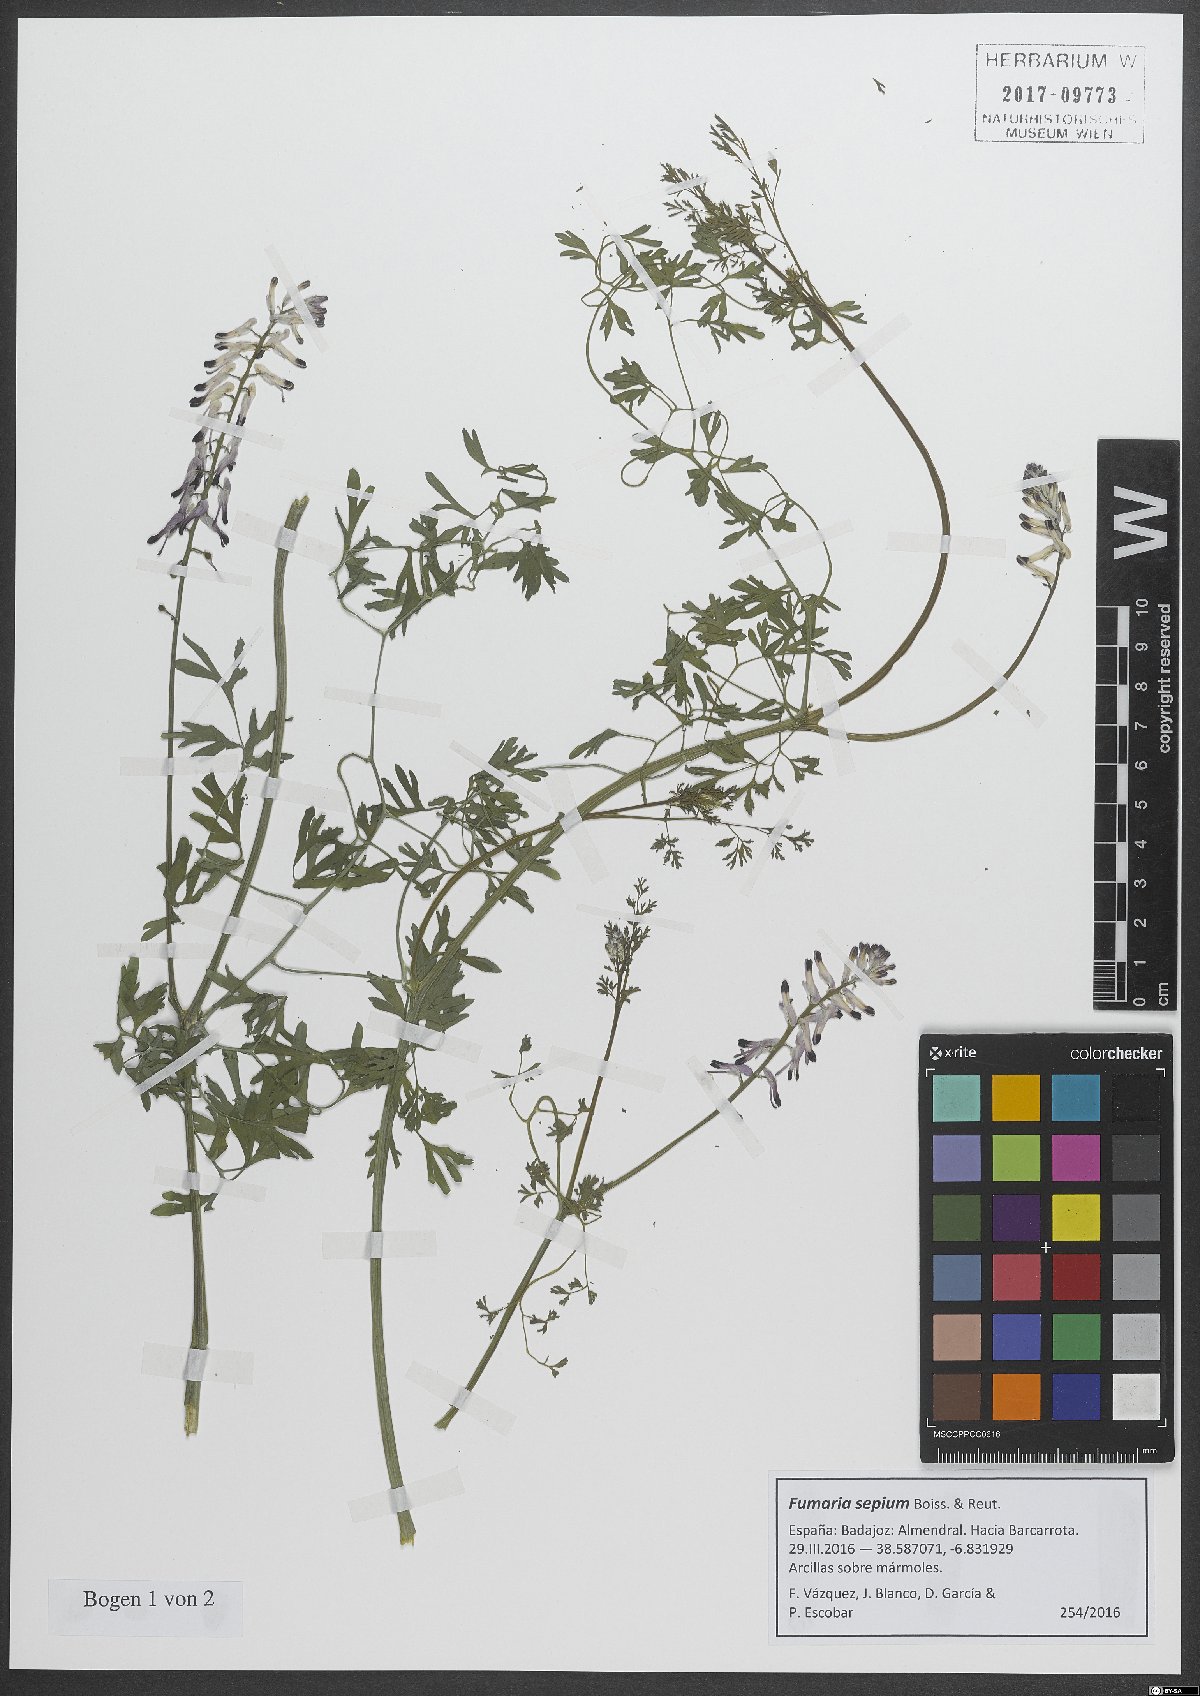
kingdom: Plantae
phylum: Tracheophyta
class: Magnoliopsida
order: Ranunculales
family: Papaveraceae
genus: Fumaria
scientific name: Fumaria sepium
